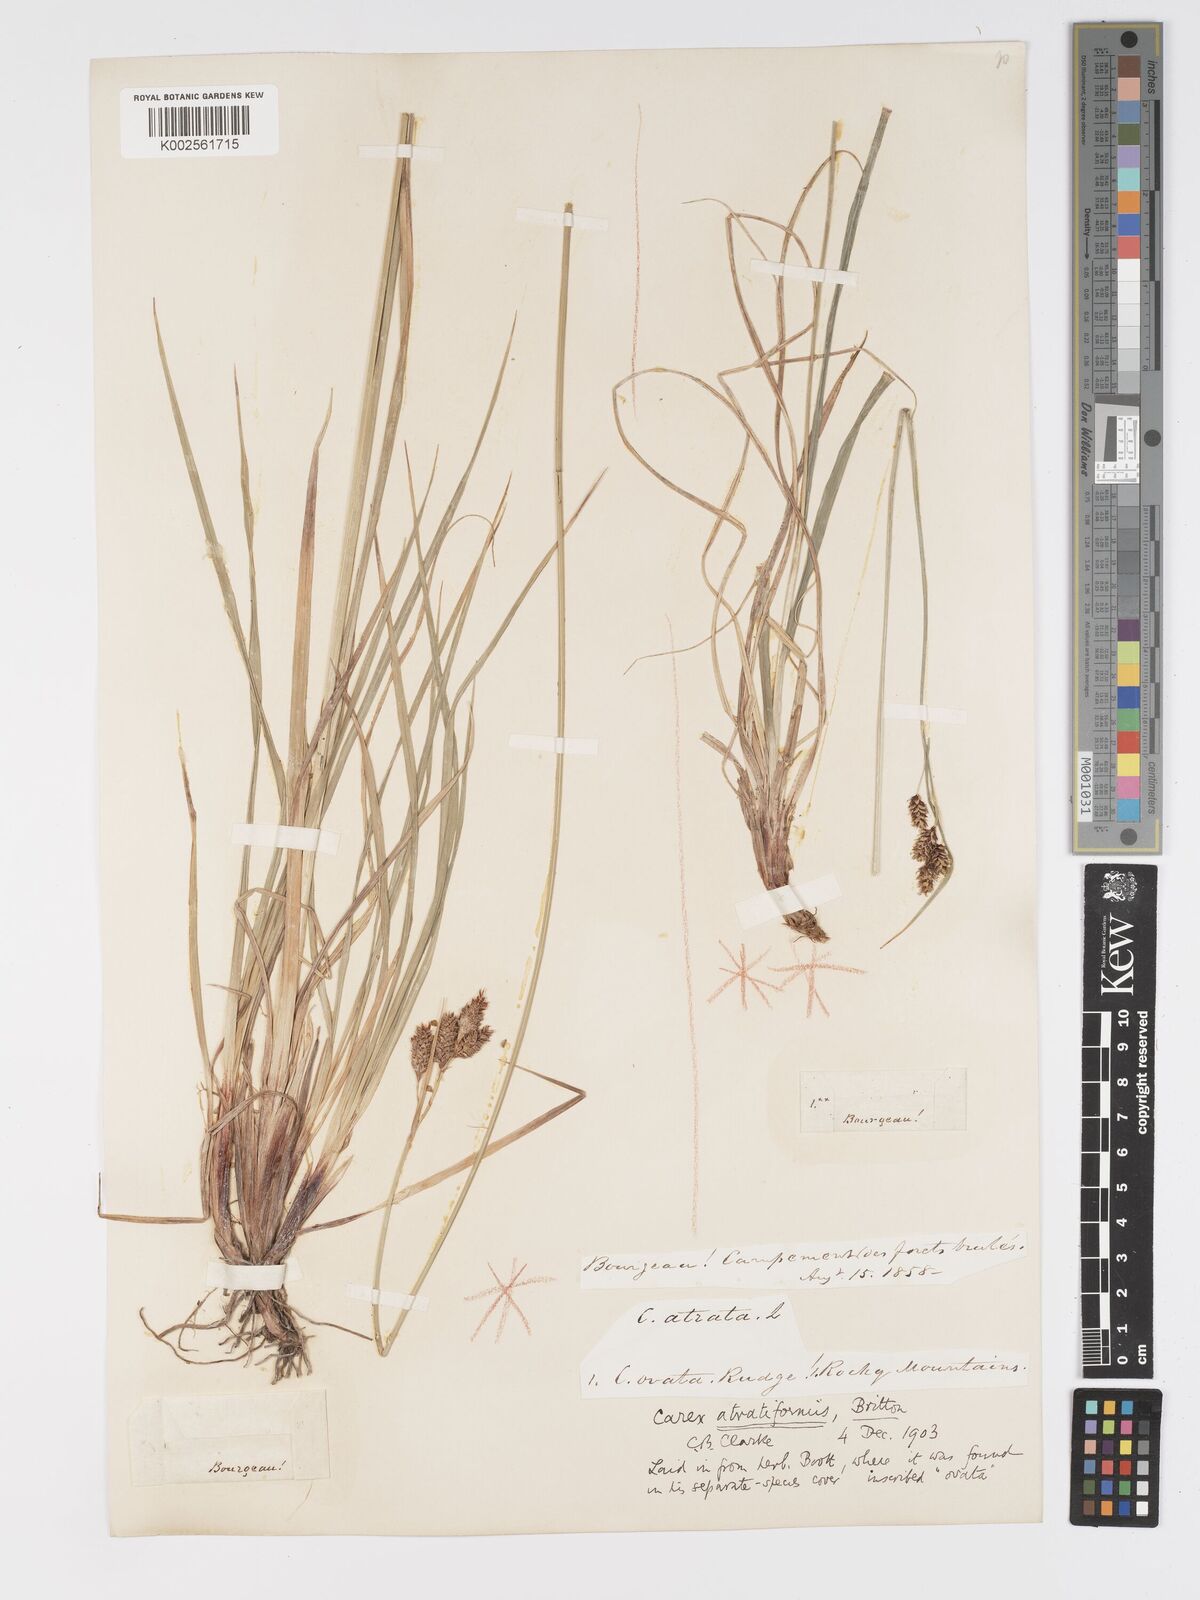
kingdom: Plantae
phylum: Tracheophyta
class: Liliopsida
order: Poales
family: Cyperaceae
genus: Carex
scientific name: Carex atratiformis
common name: Black sedge
